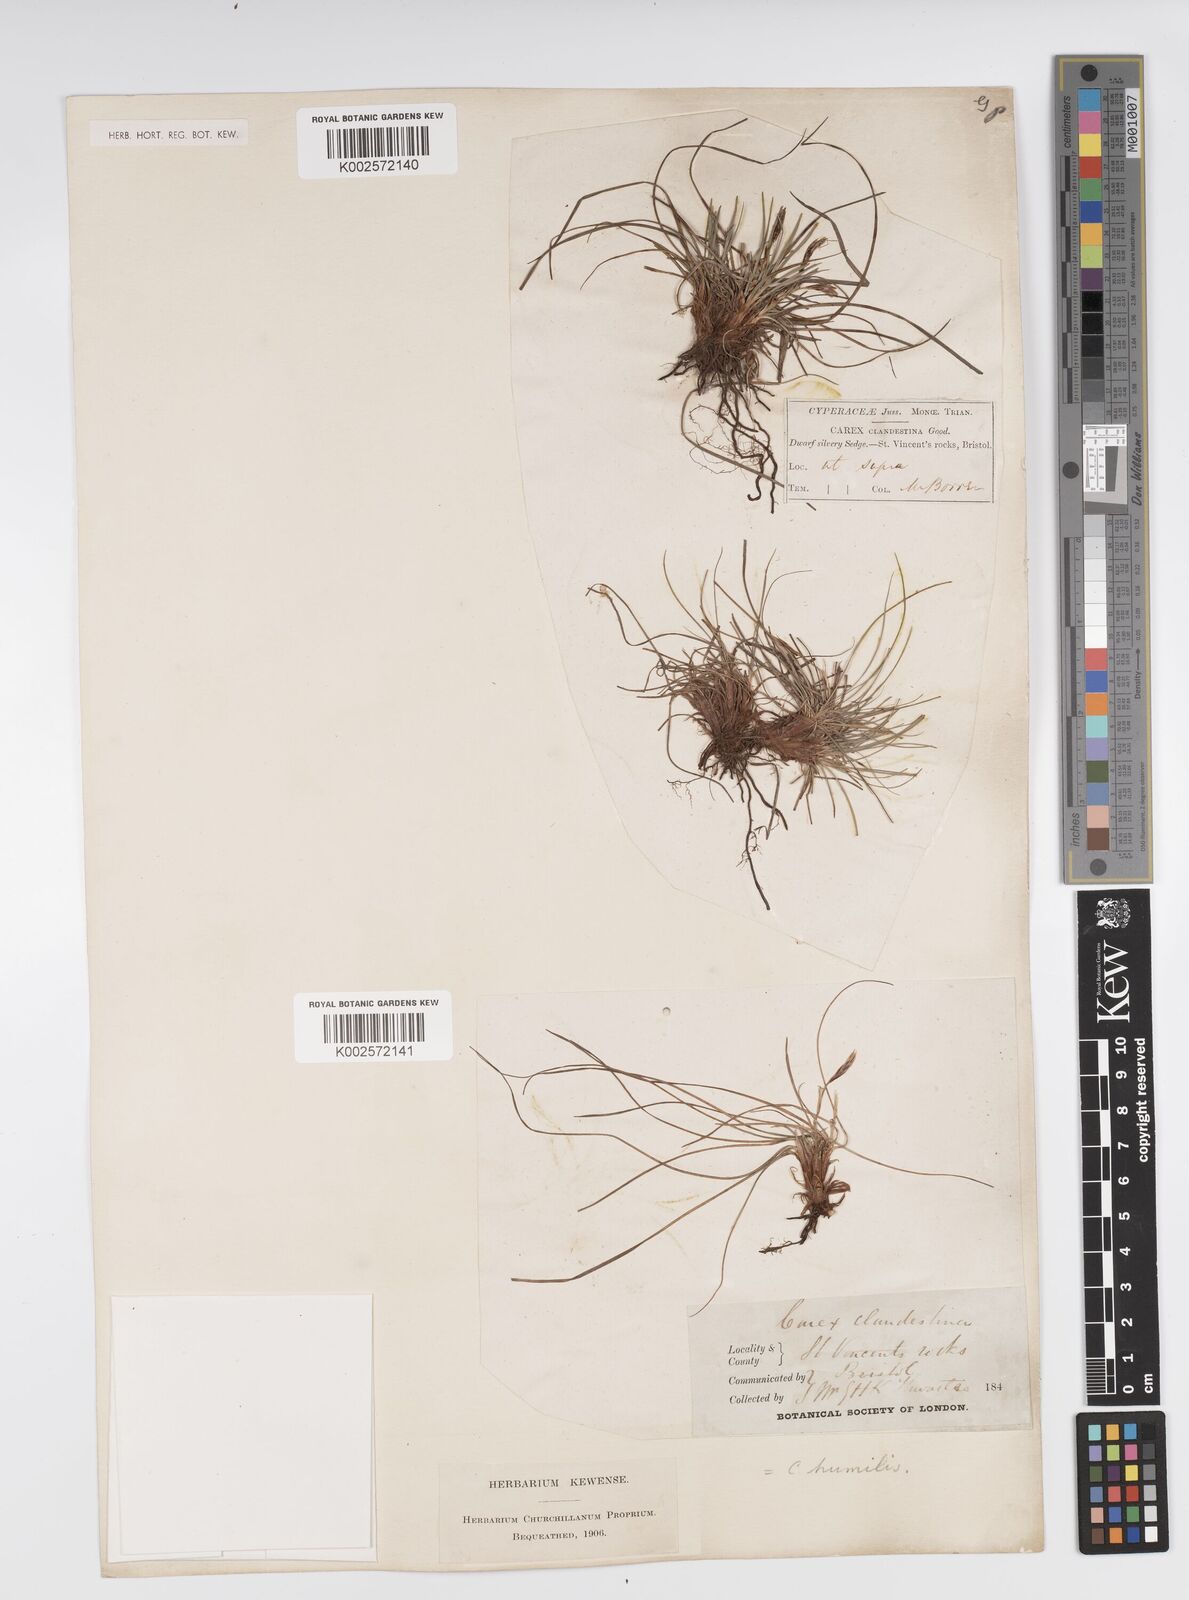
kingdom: Plantae
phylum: Tracheophyta
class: Liliopsida
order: Poales
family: Cyperaceae
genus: Carex
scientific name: Carex humilis
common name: Dwarf sedge
